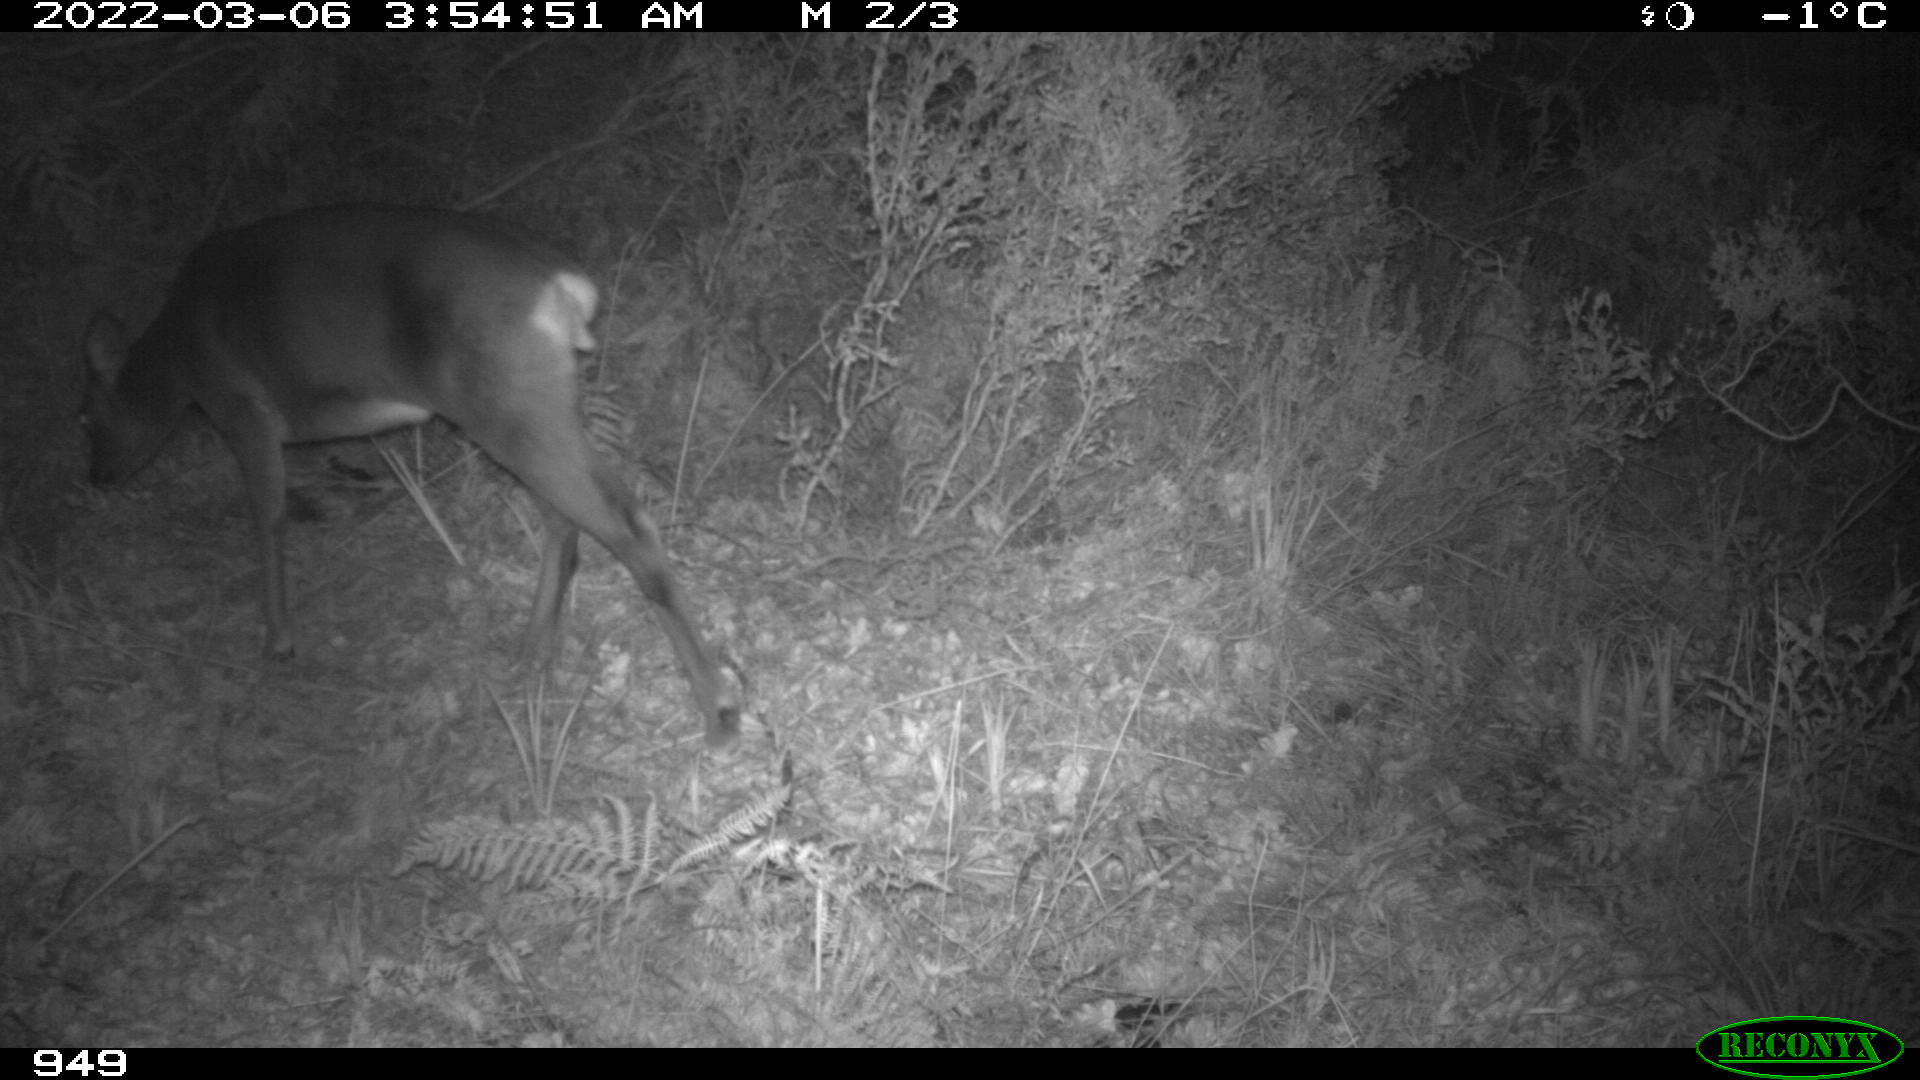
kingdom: Animalia
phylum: Chordata
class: Mammalia
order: Artiodactyla
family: Cervidae
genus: Capreolus
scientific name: Capreolus capreolus
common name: Western roe deer
